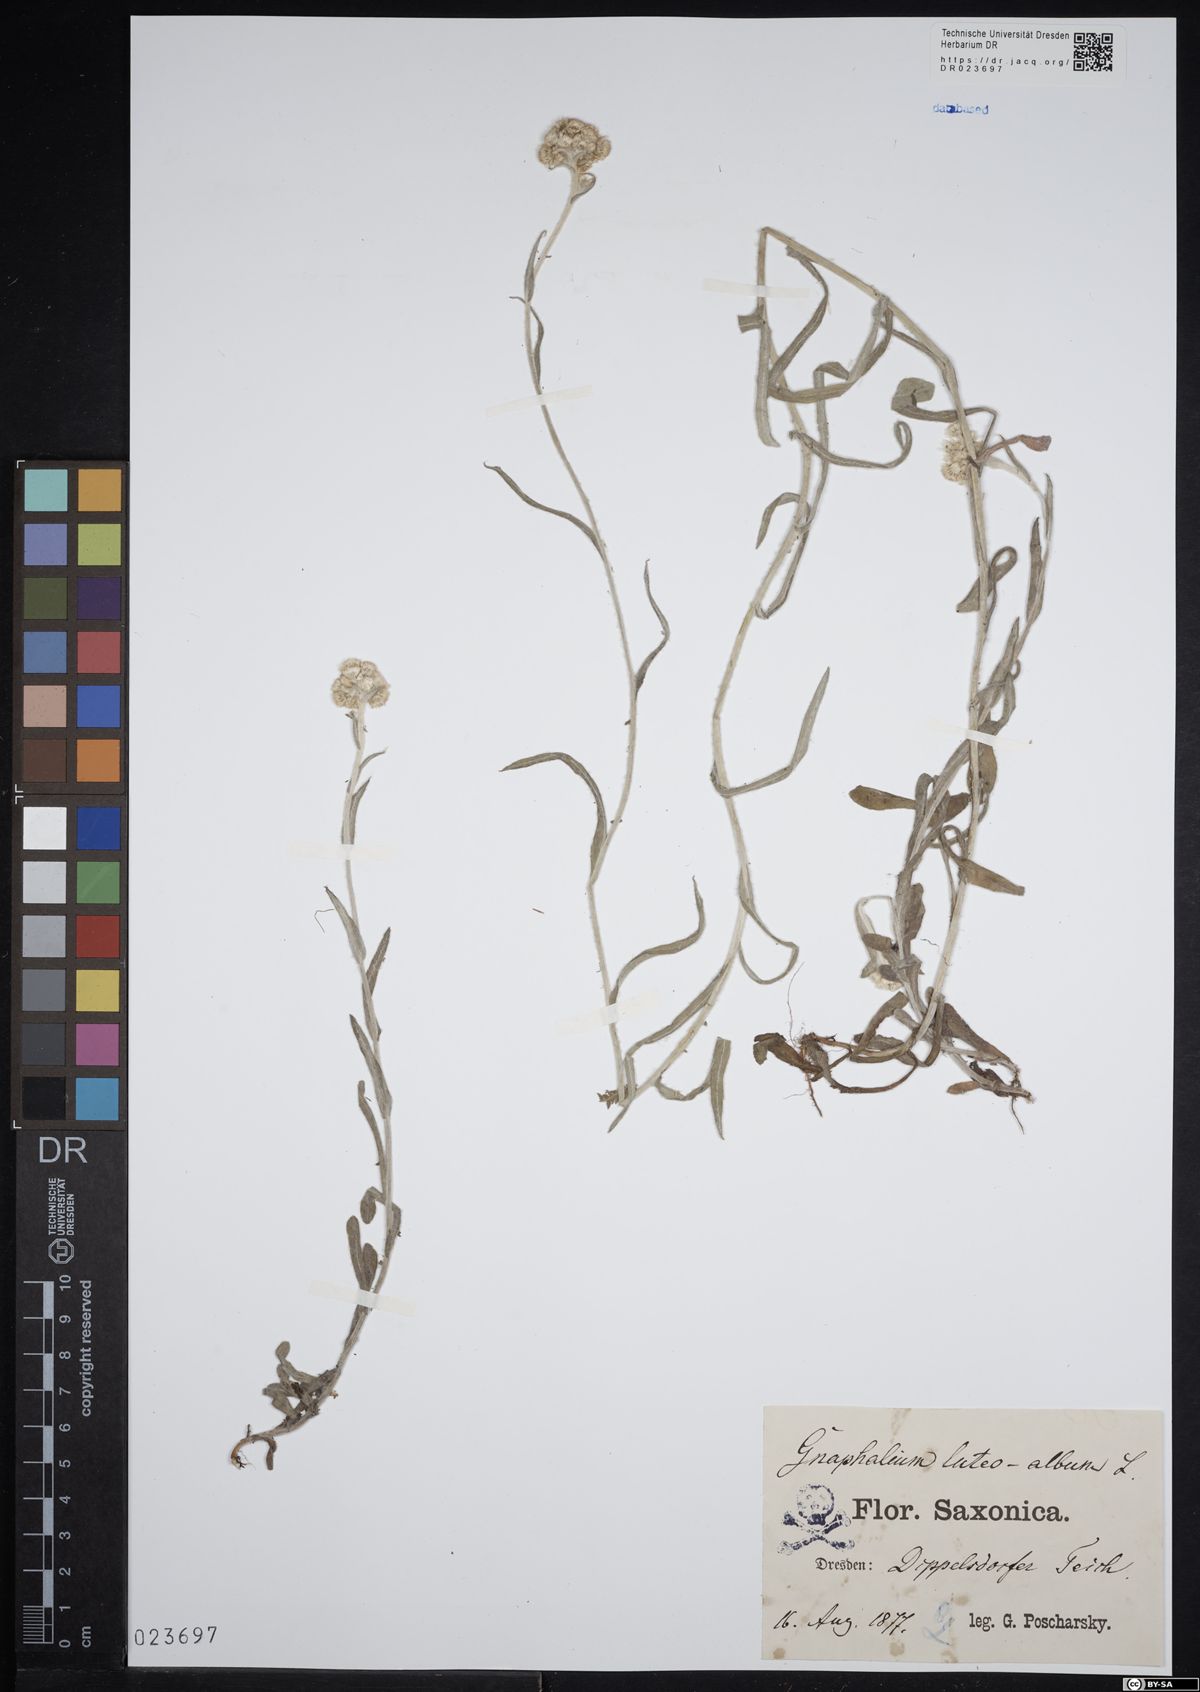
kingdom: Plantae
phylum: Tracheophyta
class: Magnoliopsida
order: Asterales
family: Asteraceae
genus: Helichrysum
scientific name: Helichrysum luteoalbum
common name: Daisy
